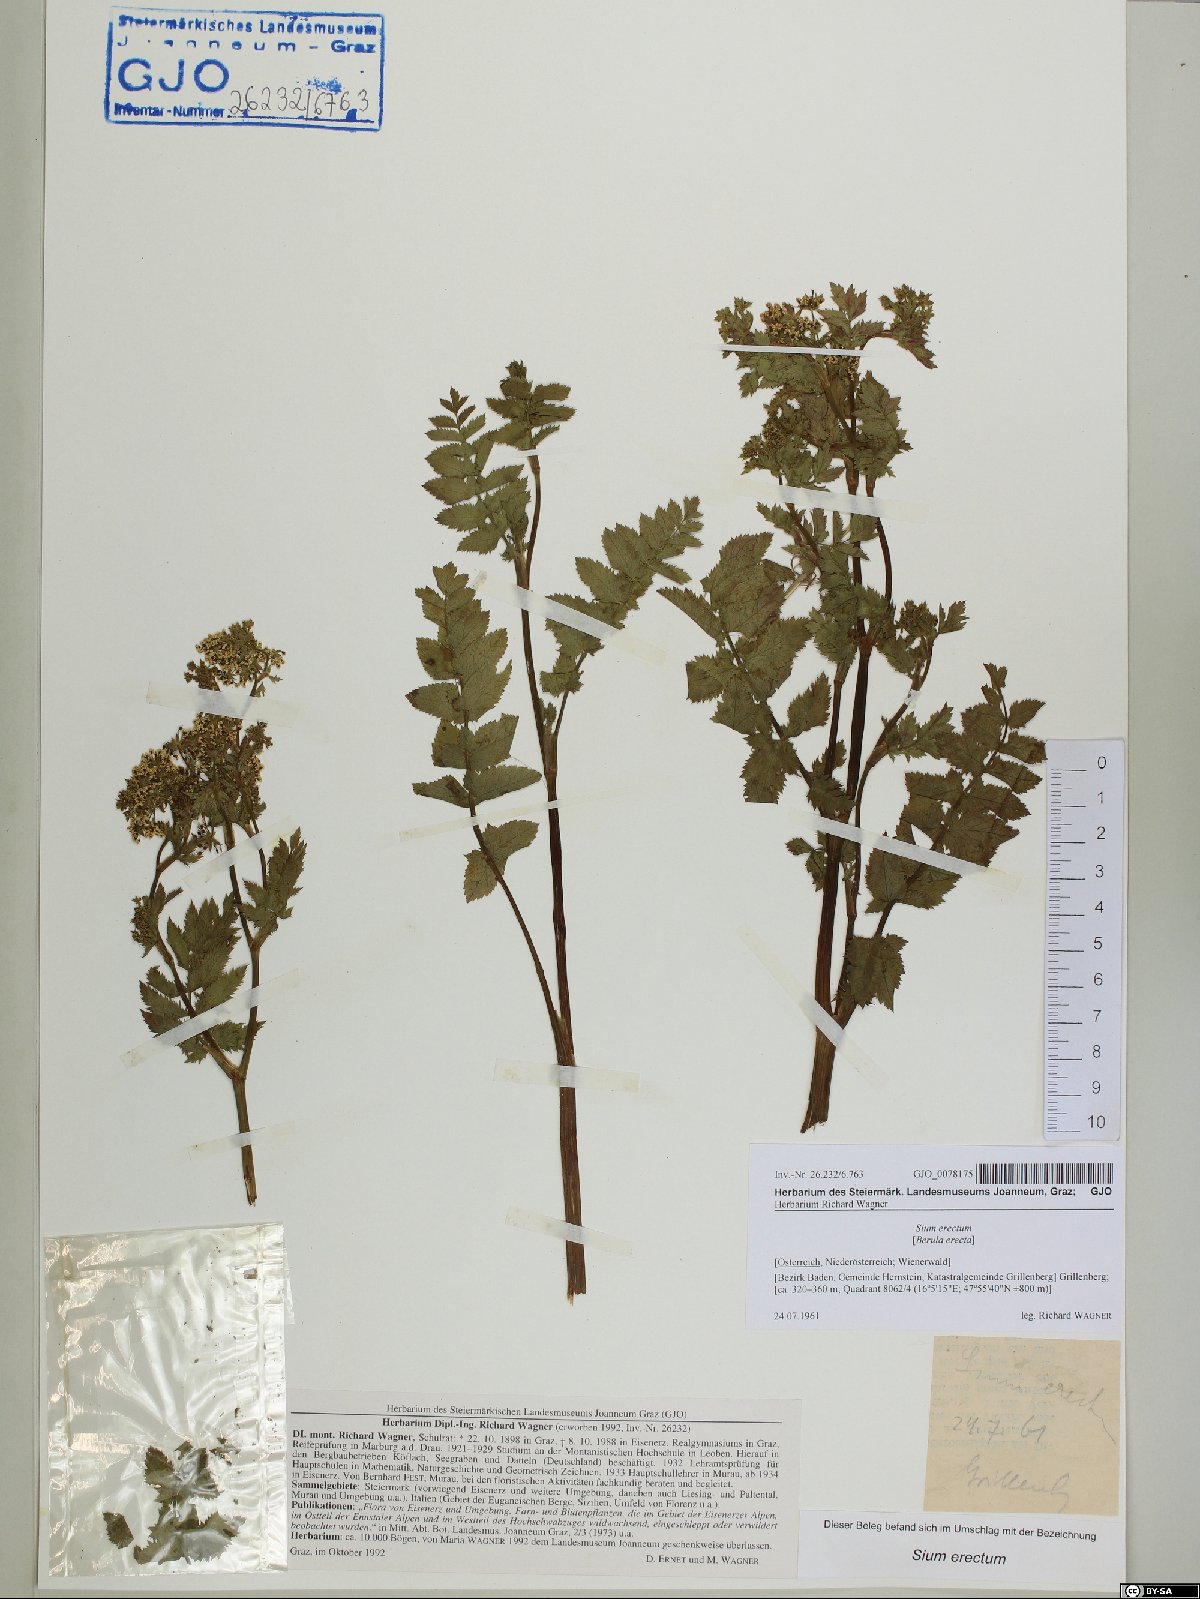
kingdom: Plantae
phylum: Tracheophyta
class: Magnoliopsida
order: Apiales
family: Apiaceae
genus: Berula
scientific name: Berula erecta
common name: Lesser water-parsnip
